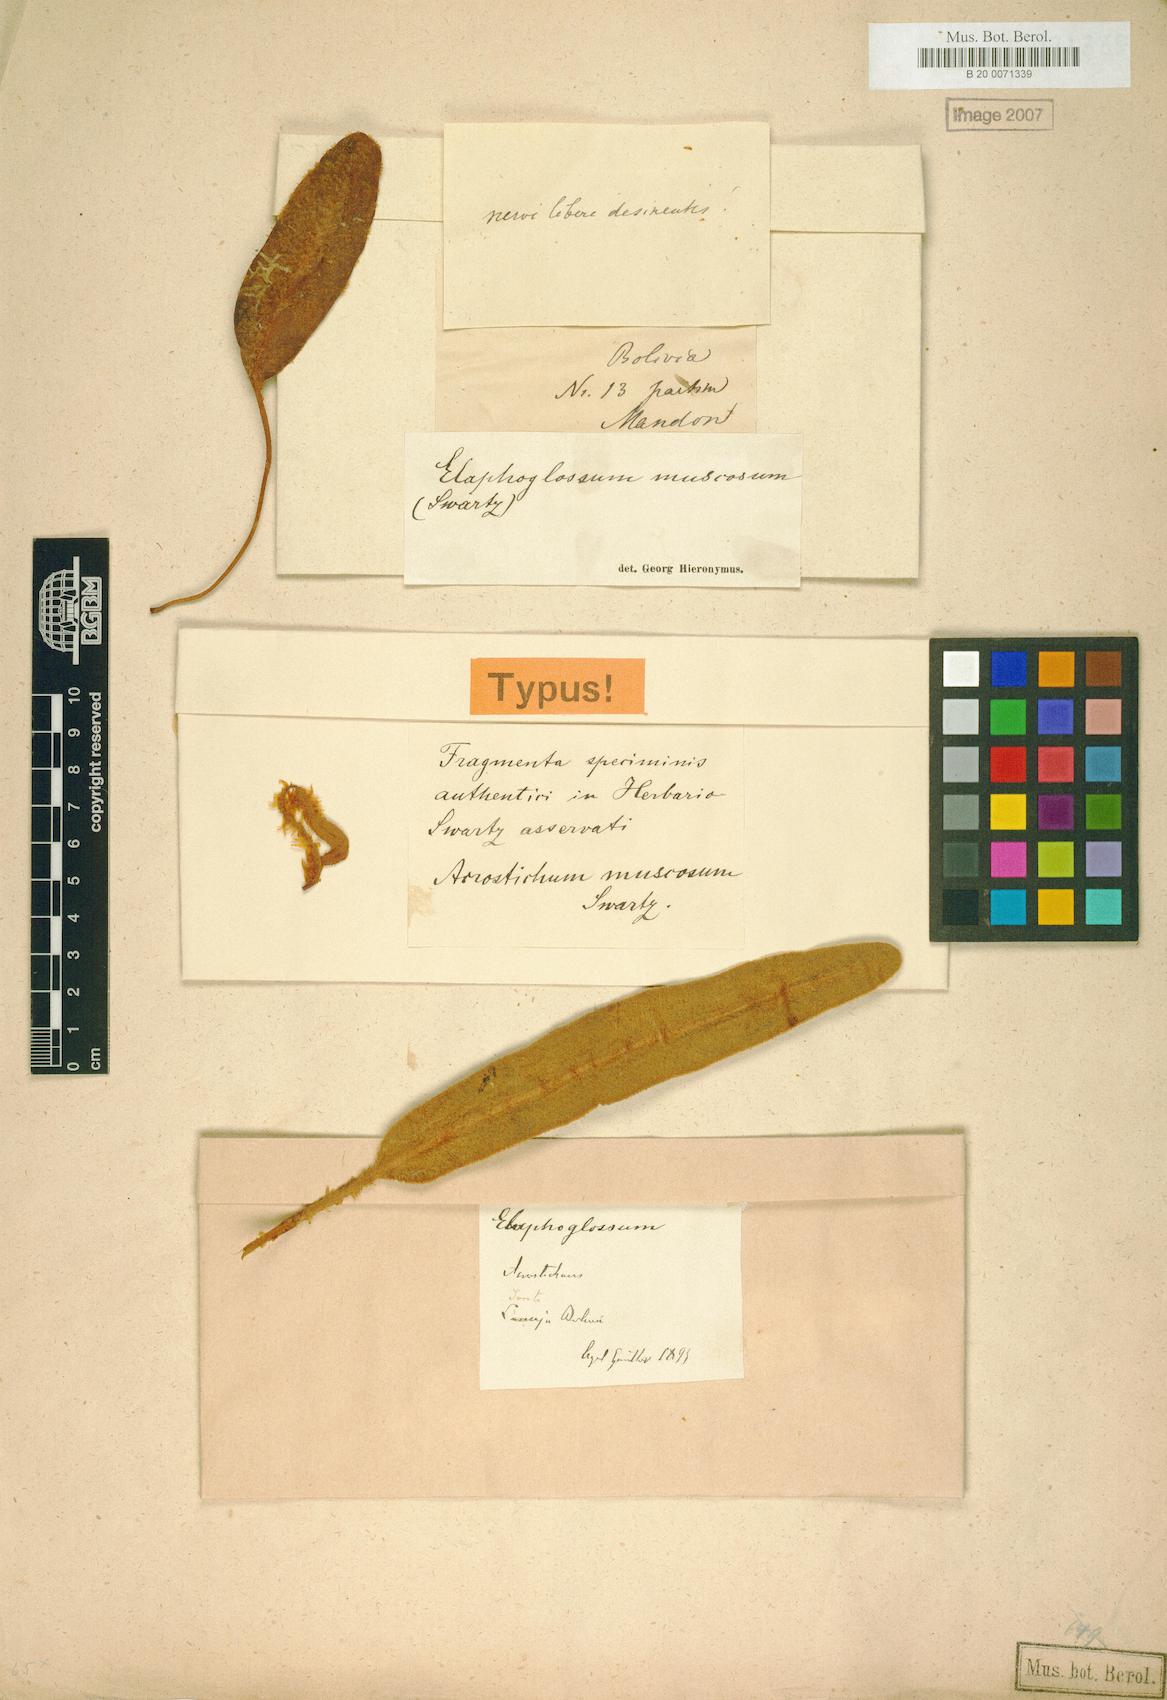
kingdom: Plantae
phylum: Tracheophyta
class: Polypodiopsida
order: Polypodiales
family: Dryopteridaceae
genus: Elaphoglossum
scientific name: Elaphoglossum muscosum
